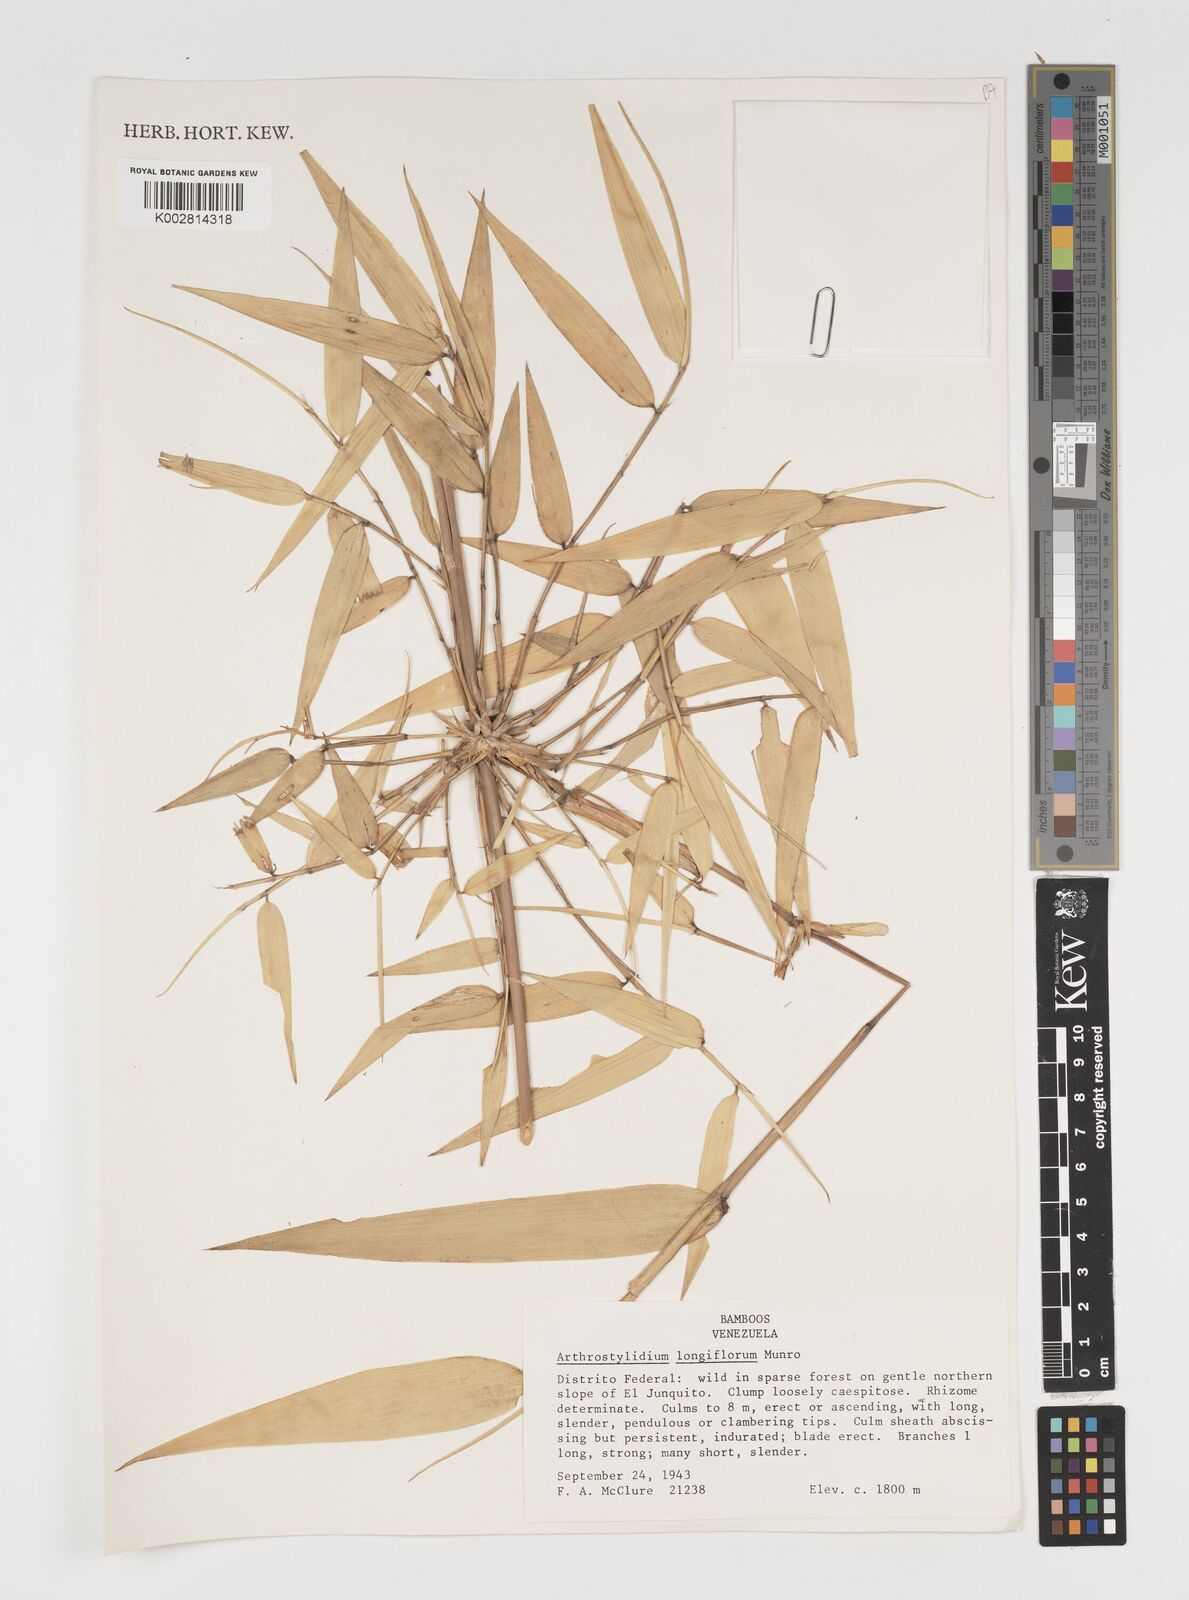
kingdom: Plantae
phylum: Tracheophyta
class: Liliopsida
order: Poales
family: Poaceae
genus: Arthrostylidium
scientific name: Arthrostylidium longiflorum
